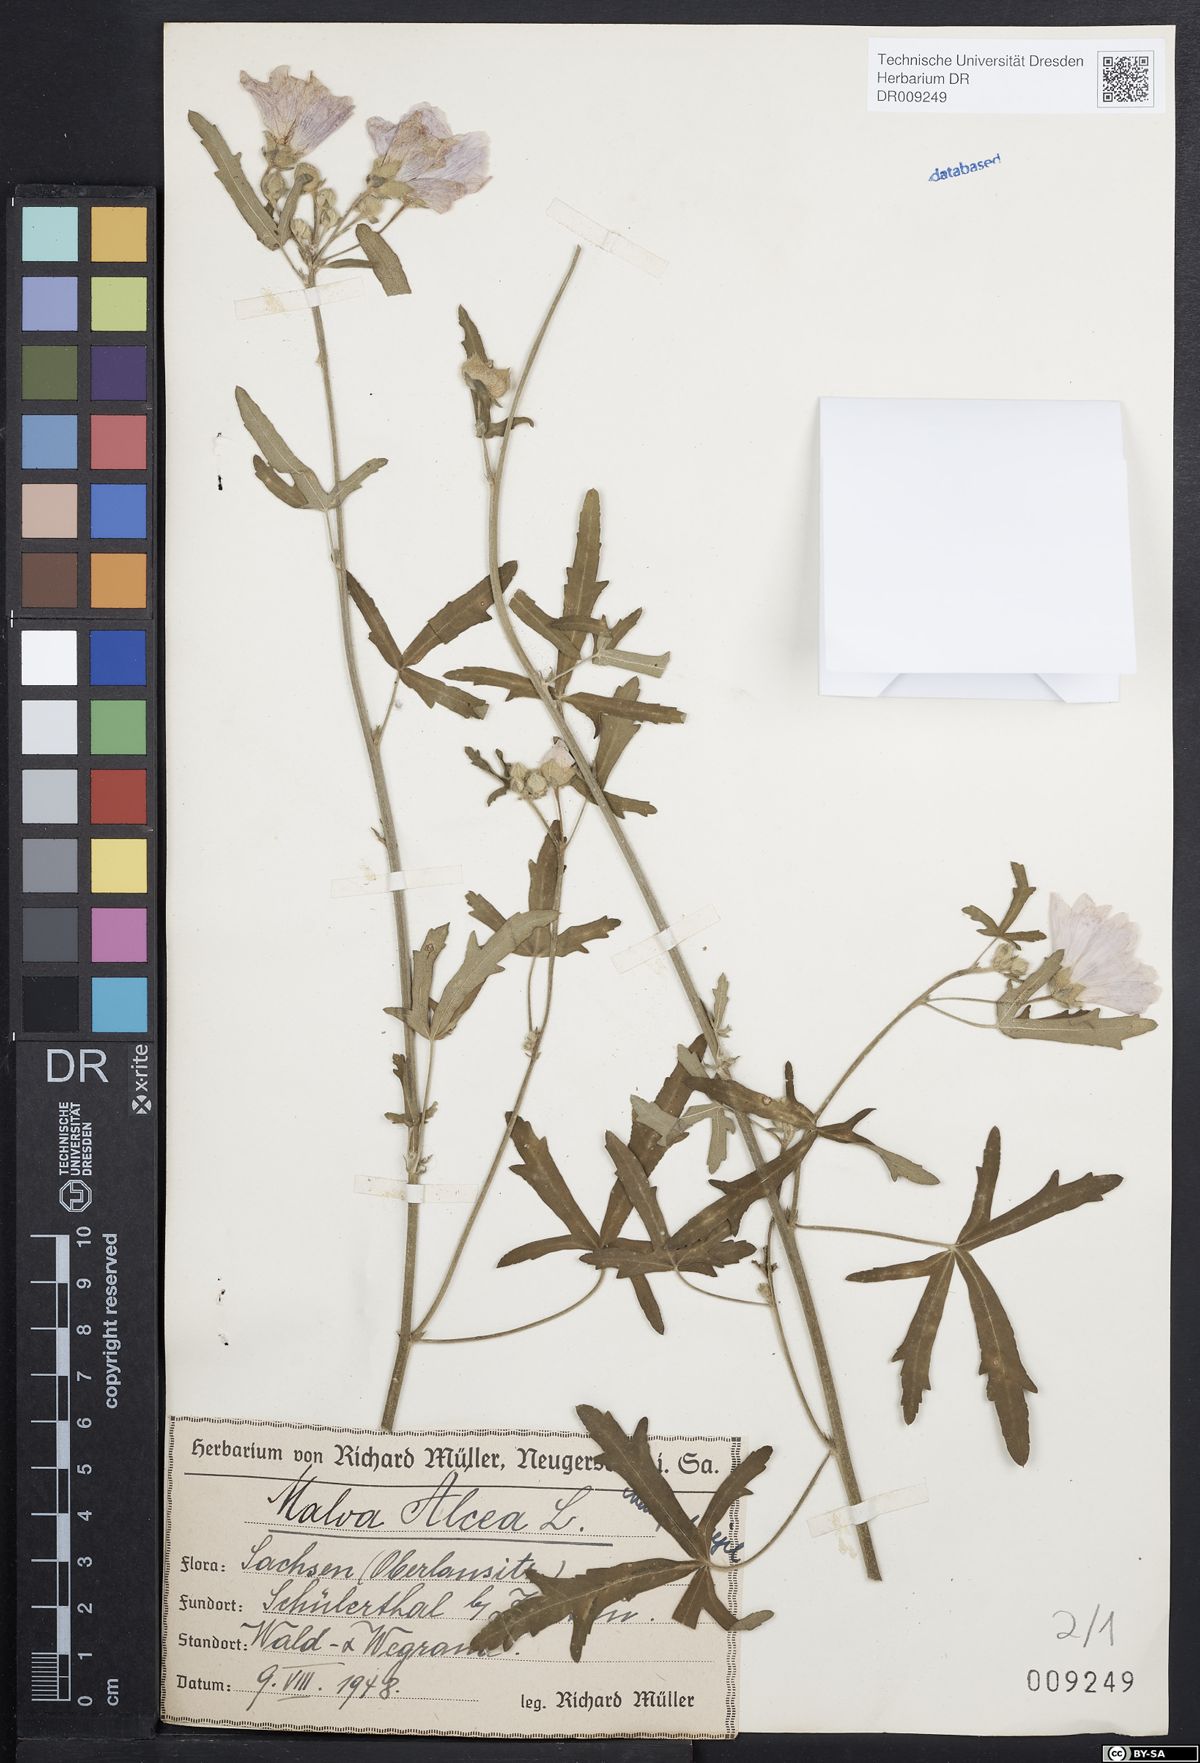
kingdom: Plantae
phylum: Tracheophyta
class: Magnoliopsida
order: Malvales
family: Malvaceae
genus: Malva
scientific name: Malva alcea
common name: Greater musk-mallow
